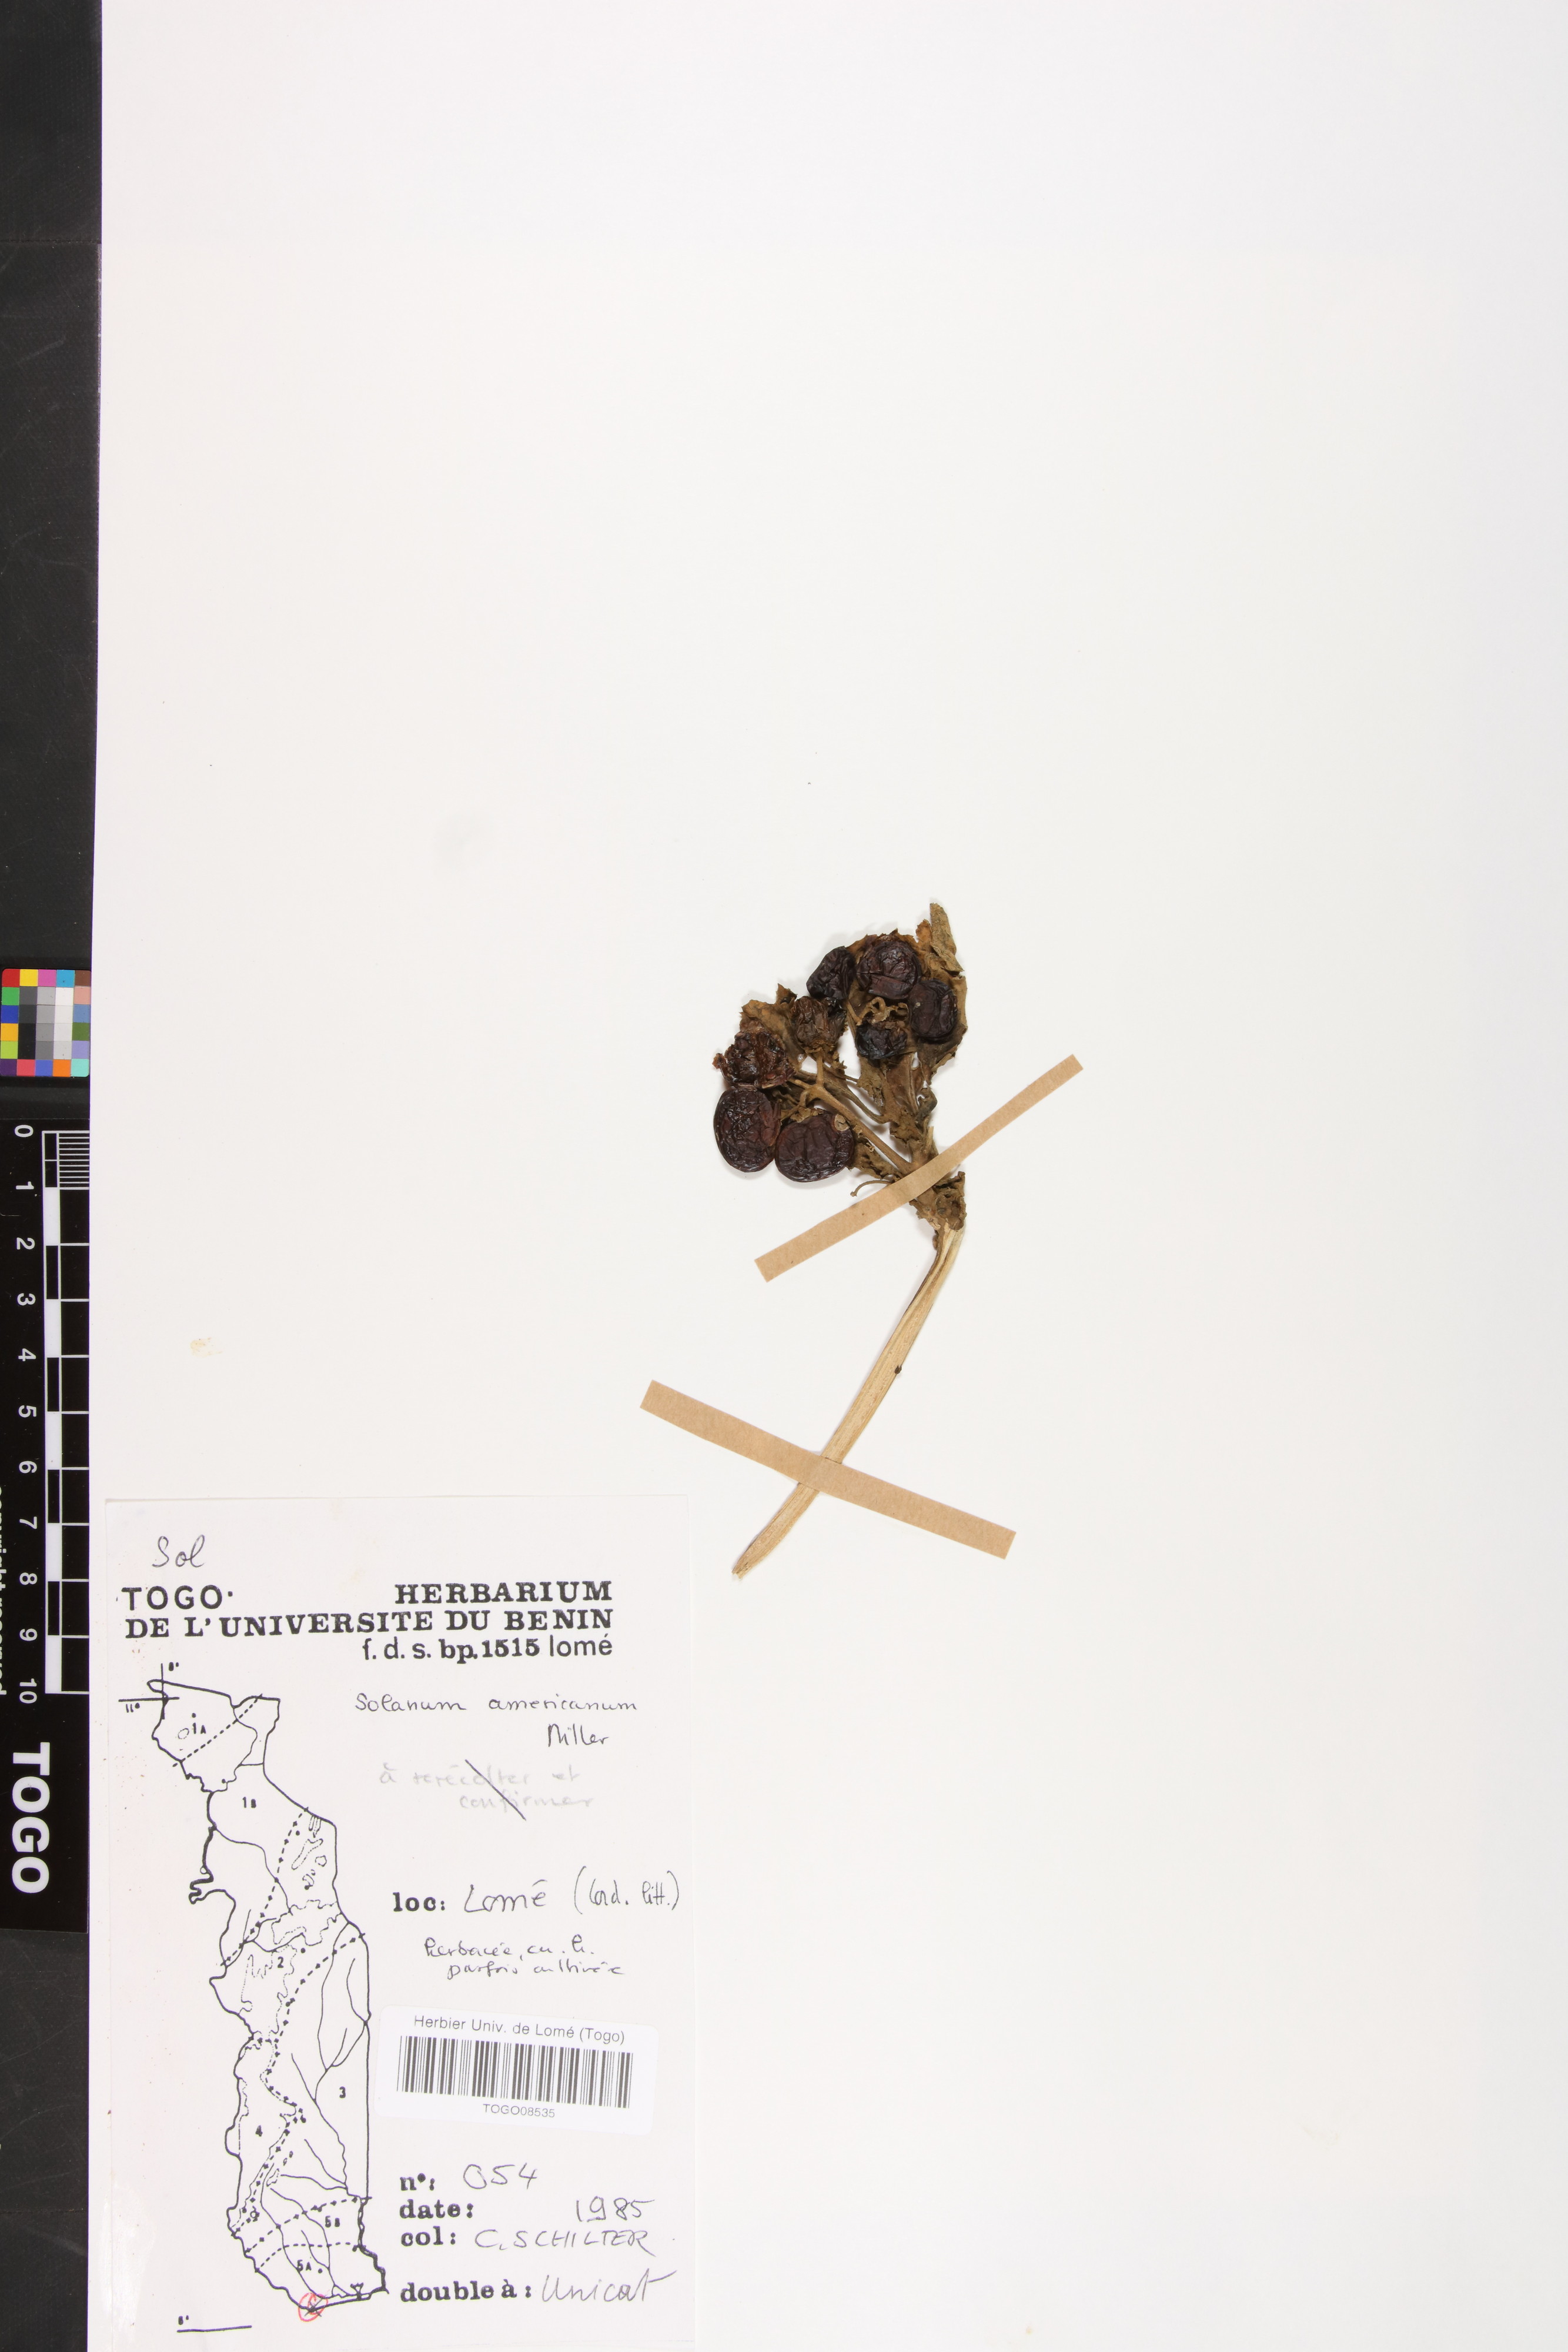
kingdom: Plantae
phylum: Tracheophyta
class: Magnoliopsida
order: Solanales
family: Solanaceae
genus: Solanum
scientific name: Solanum americanum
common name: American black nightshade
